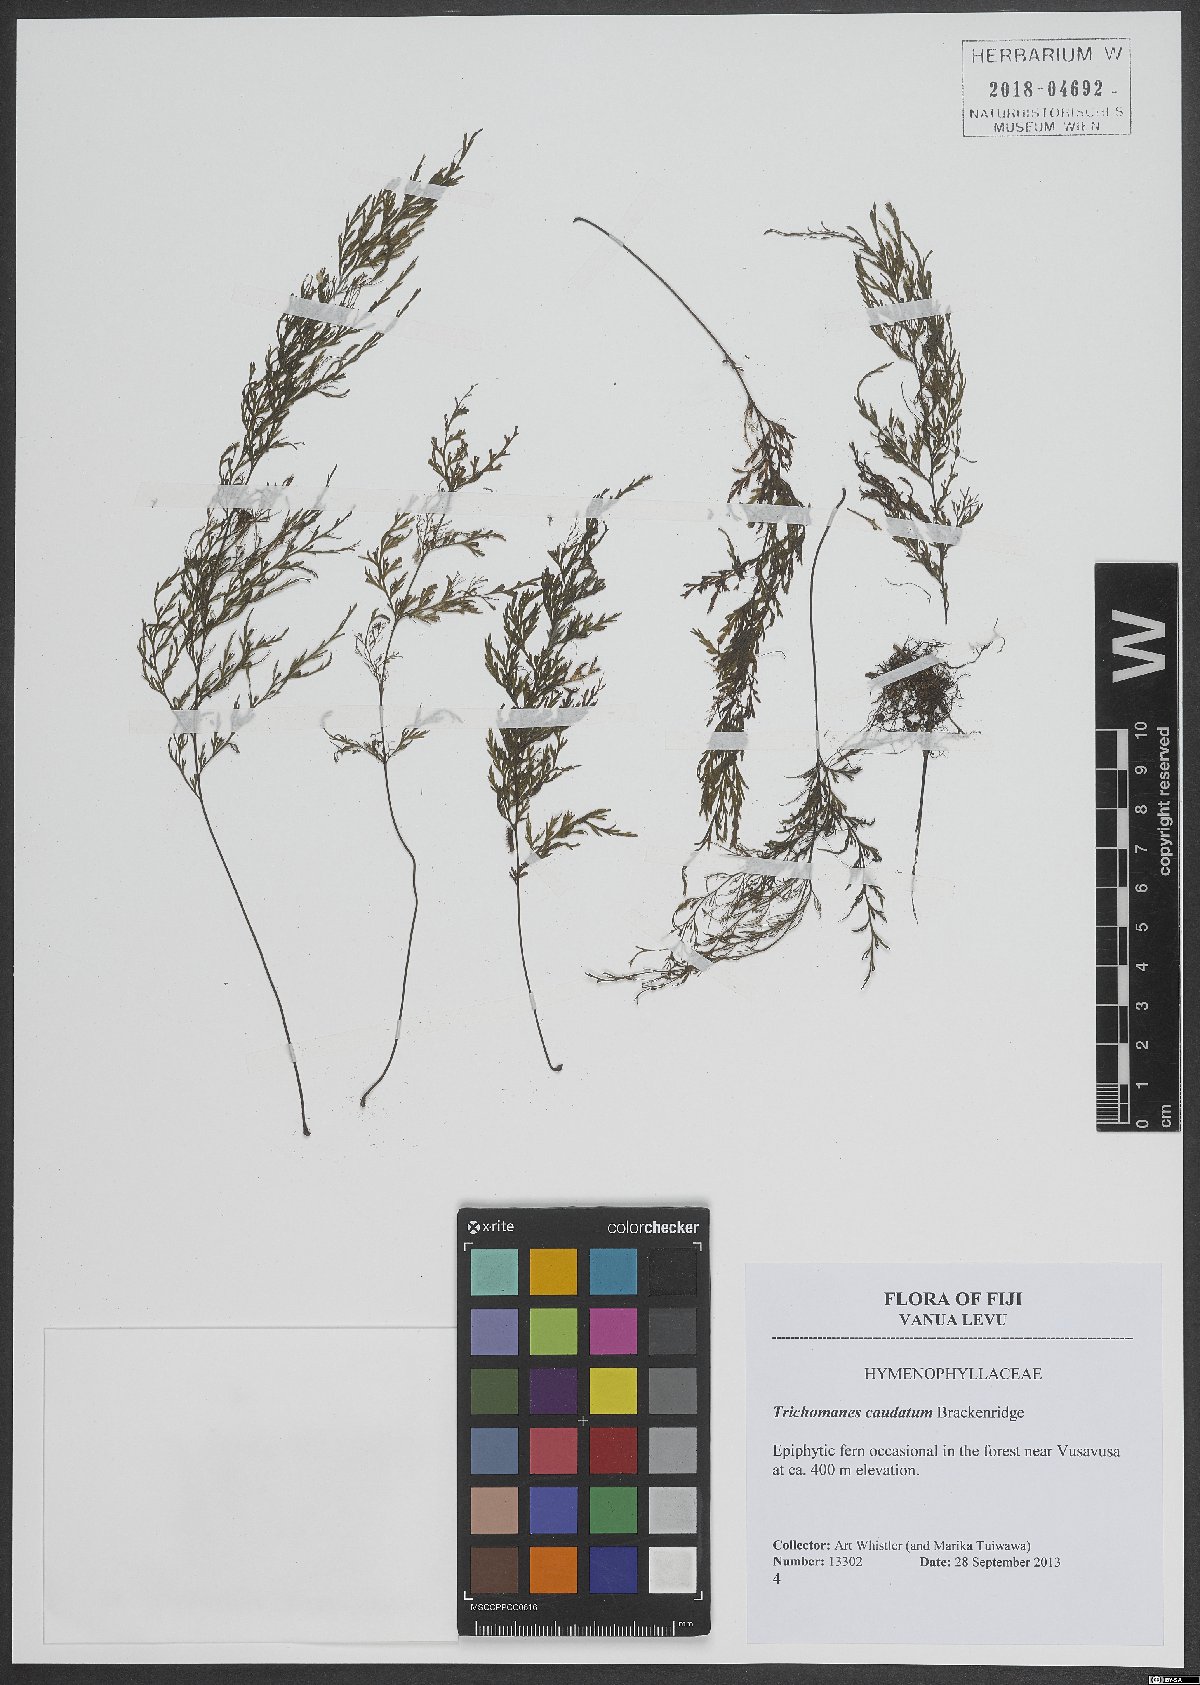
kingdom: Plantae
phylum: Tracheophyta
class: Polypodiopsida
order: Hymenophyllales
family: Hymenophyllaceae
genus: Abrodictyum
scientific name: Abrodictyum caudatum
